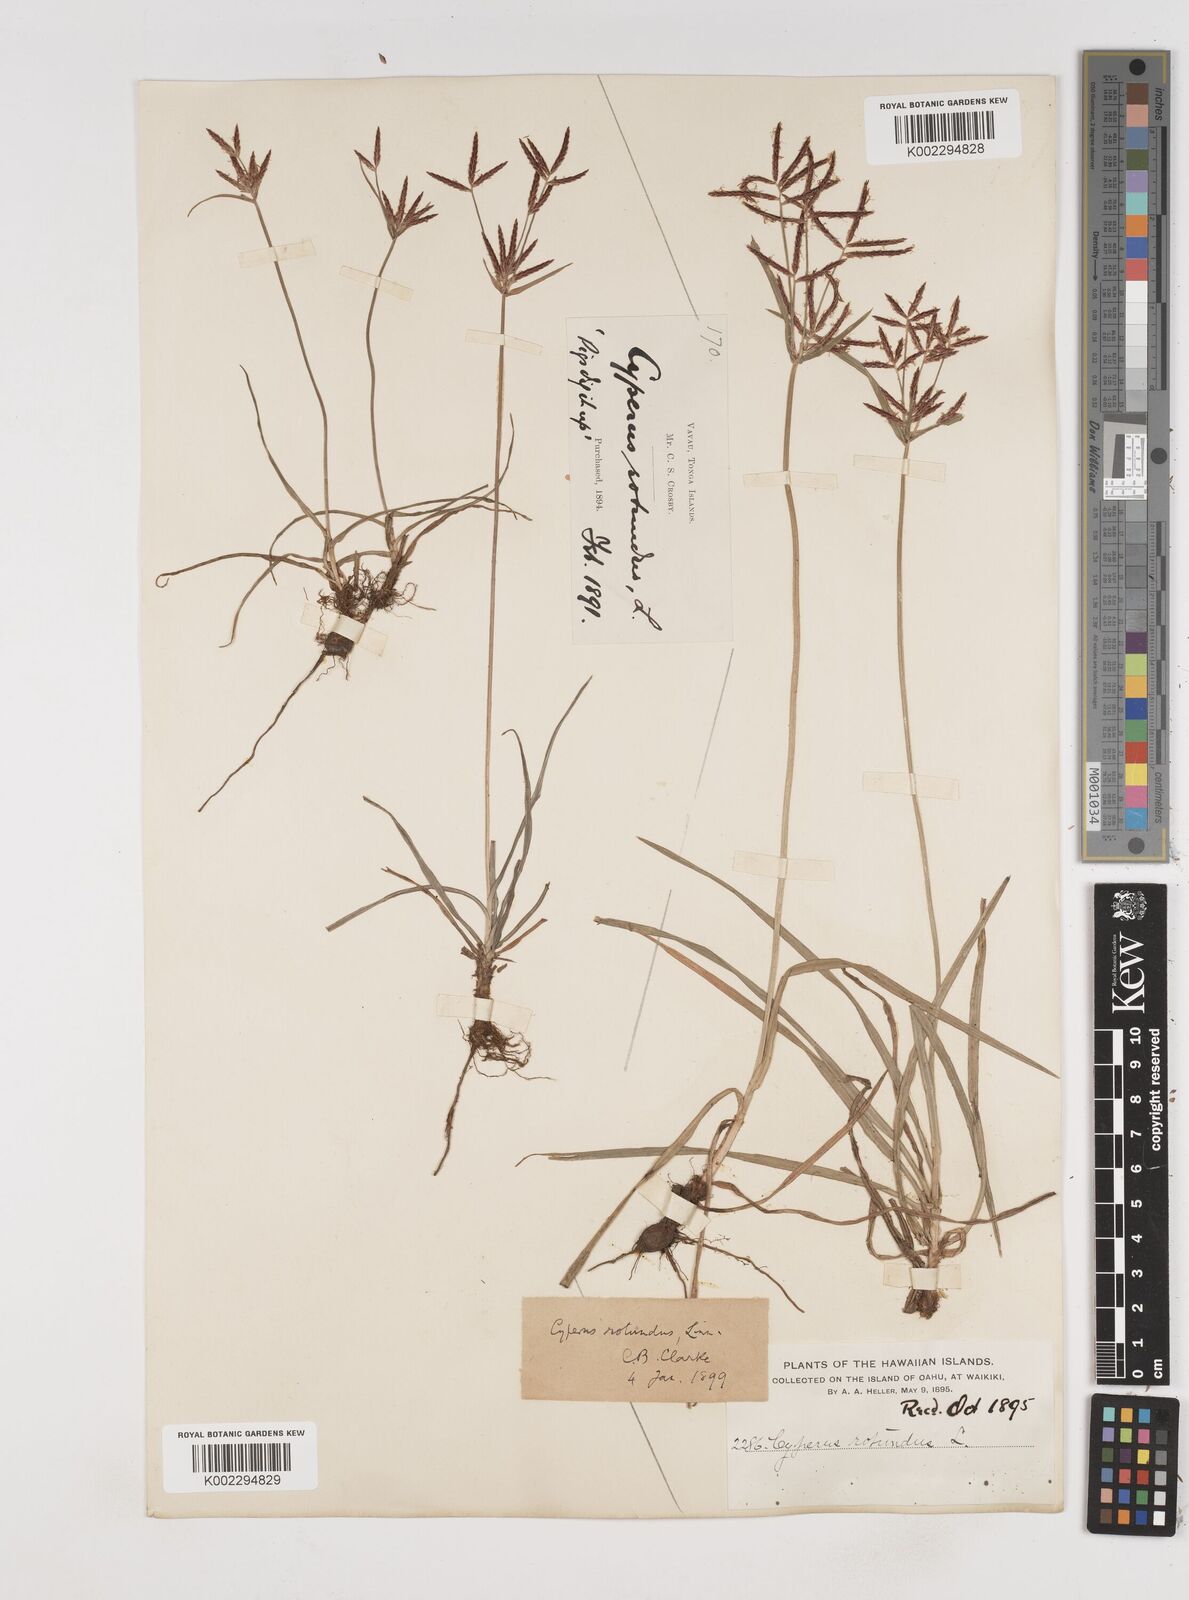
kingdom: Plantae
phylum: Tracheophyta
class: Liliopsida
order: Poales
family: Cyperaceae
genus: Cyperus
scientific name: Cyperus rotundus
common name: Nutgrass
